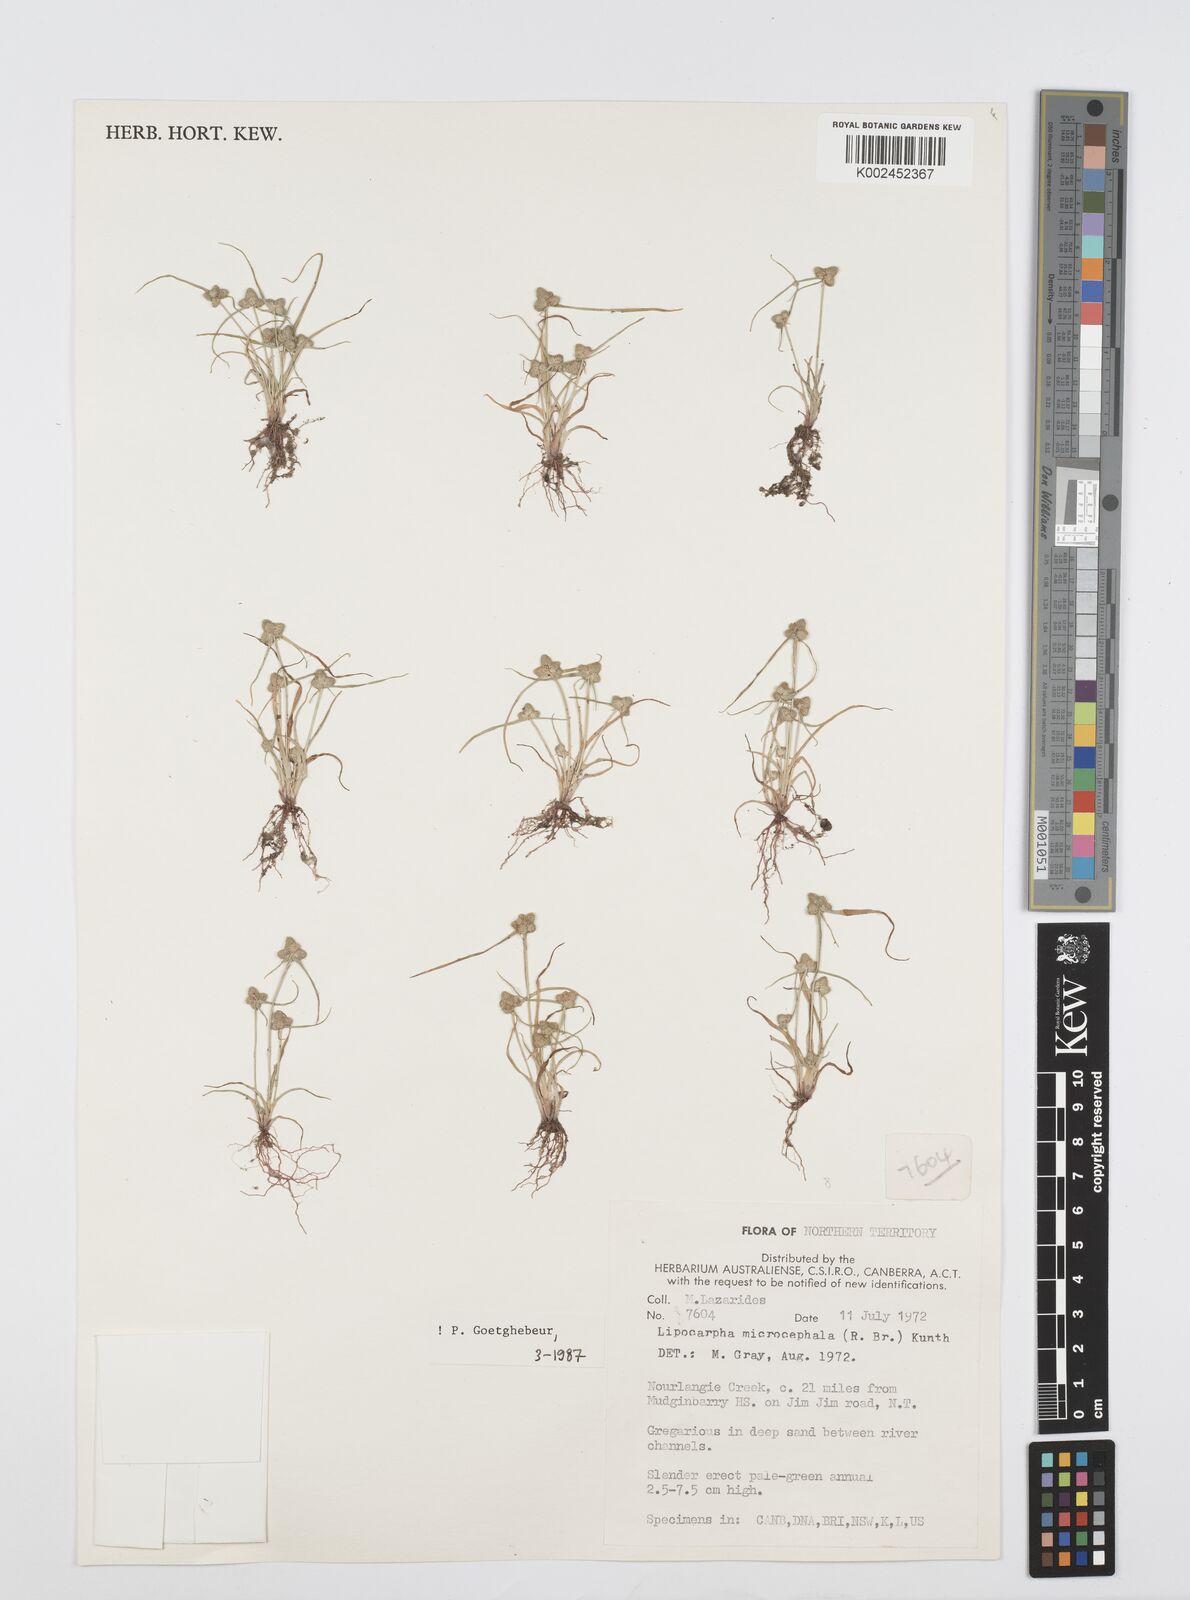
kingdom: Plantae
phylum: Tracheophyta
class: Liliopsida
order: Poales
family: Cyperaceae
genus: Cyperus
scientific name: Cyperus microcephalus
